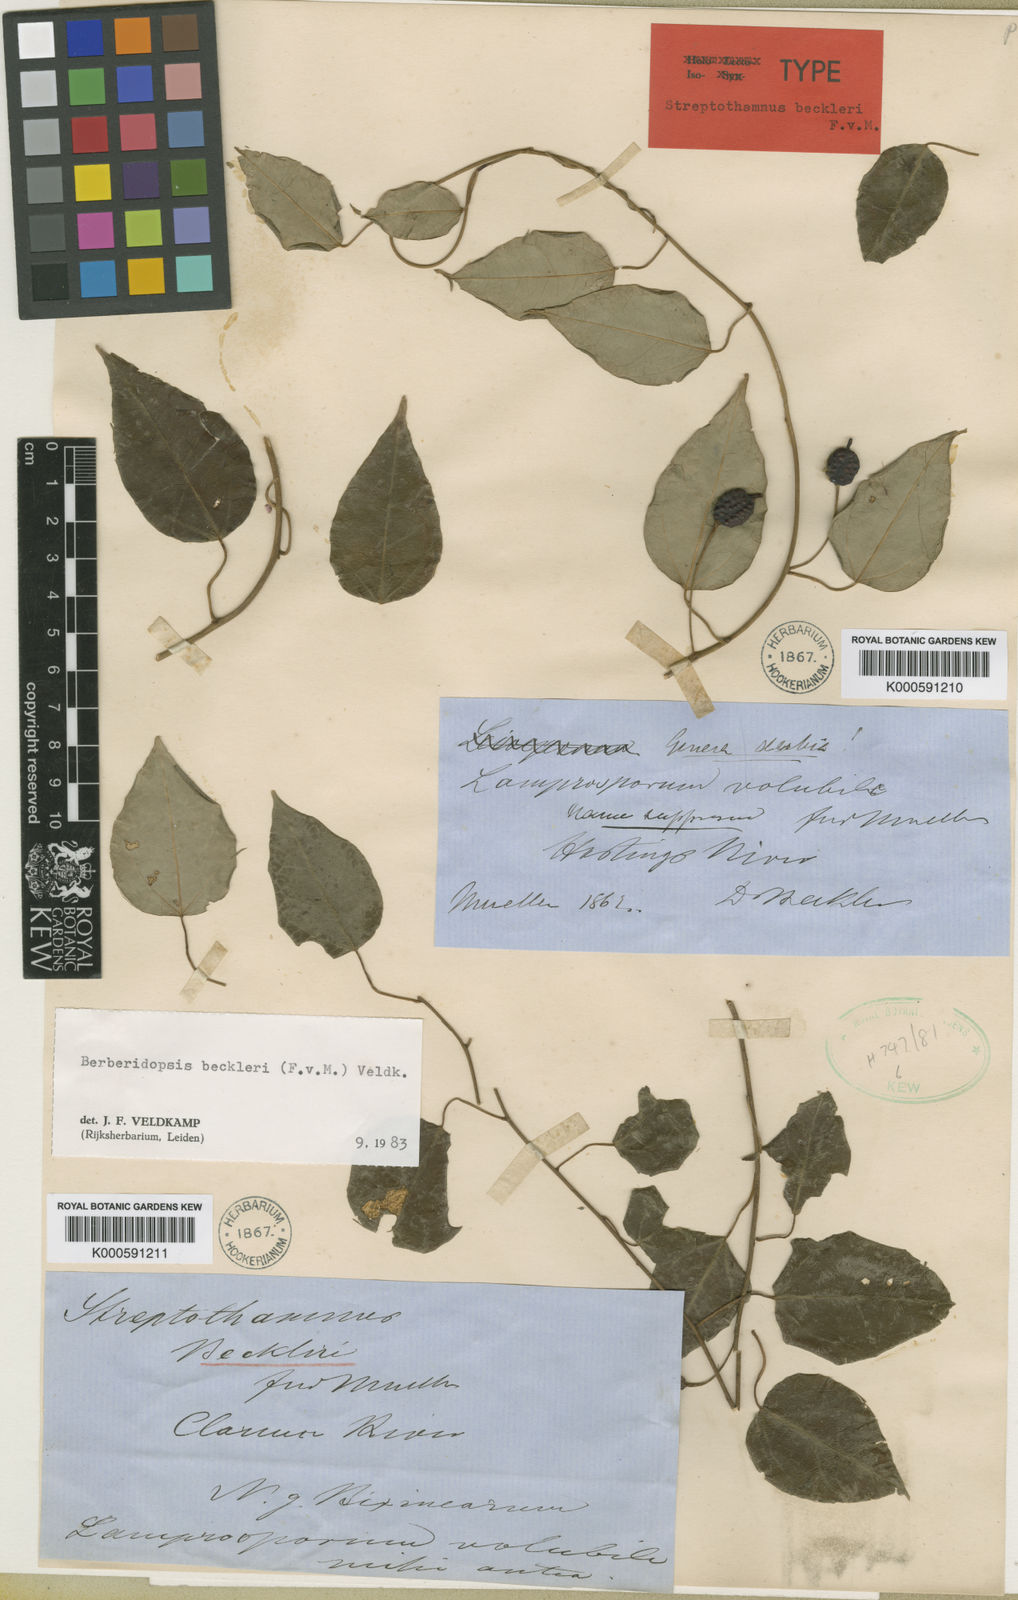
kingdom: Plantae
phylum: Tracheophyta
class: Magnoliopsida
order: Berberidopsidales
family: Berberidopsidaceae
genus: Berberidopsis
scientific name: Berberidopsis beckleri
